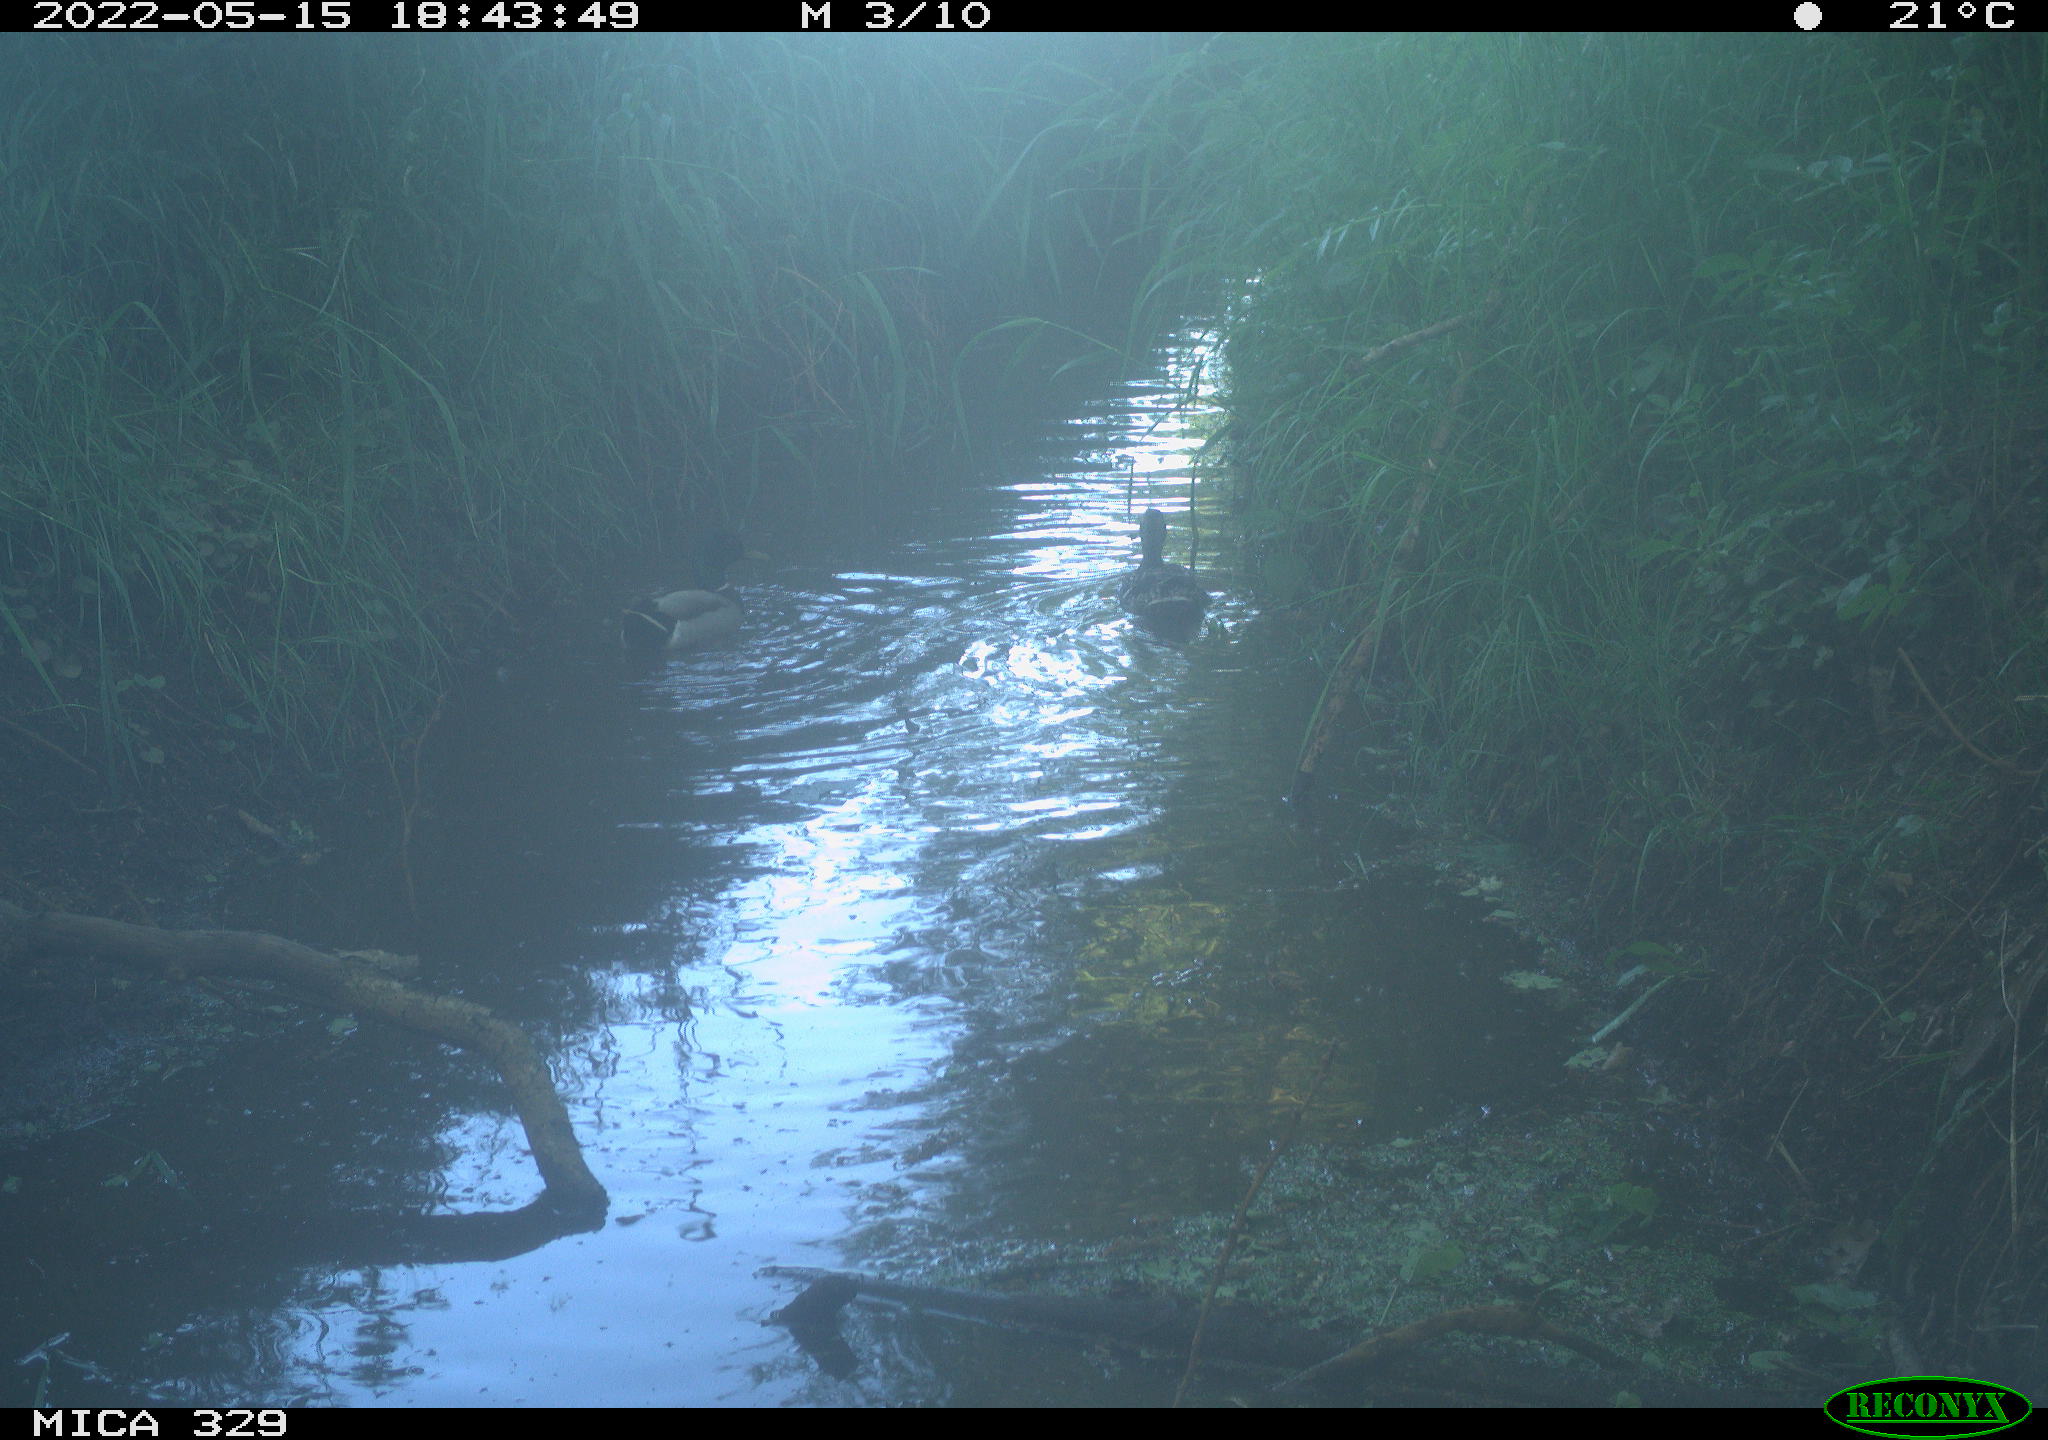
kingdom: Animalia
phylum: Chordata
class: Aves
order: Anseriformes
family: Anatidae
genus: Anas
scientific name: Anas platyrhynchos
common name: Mallard
